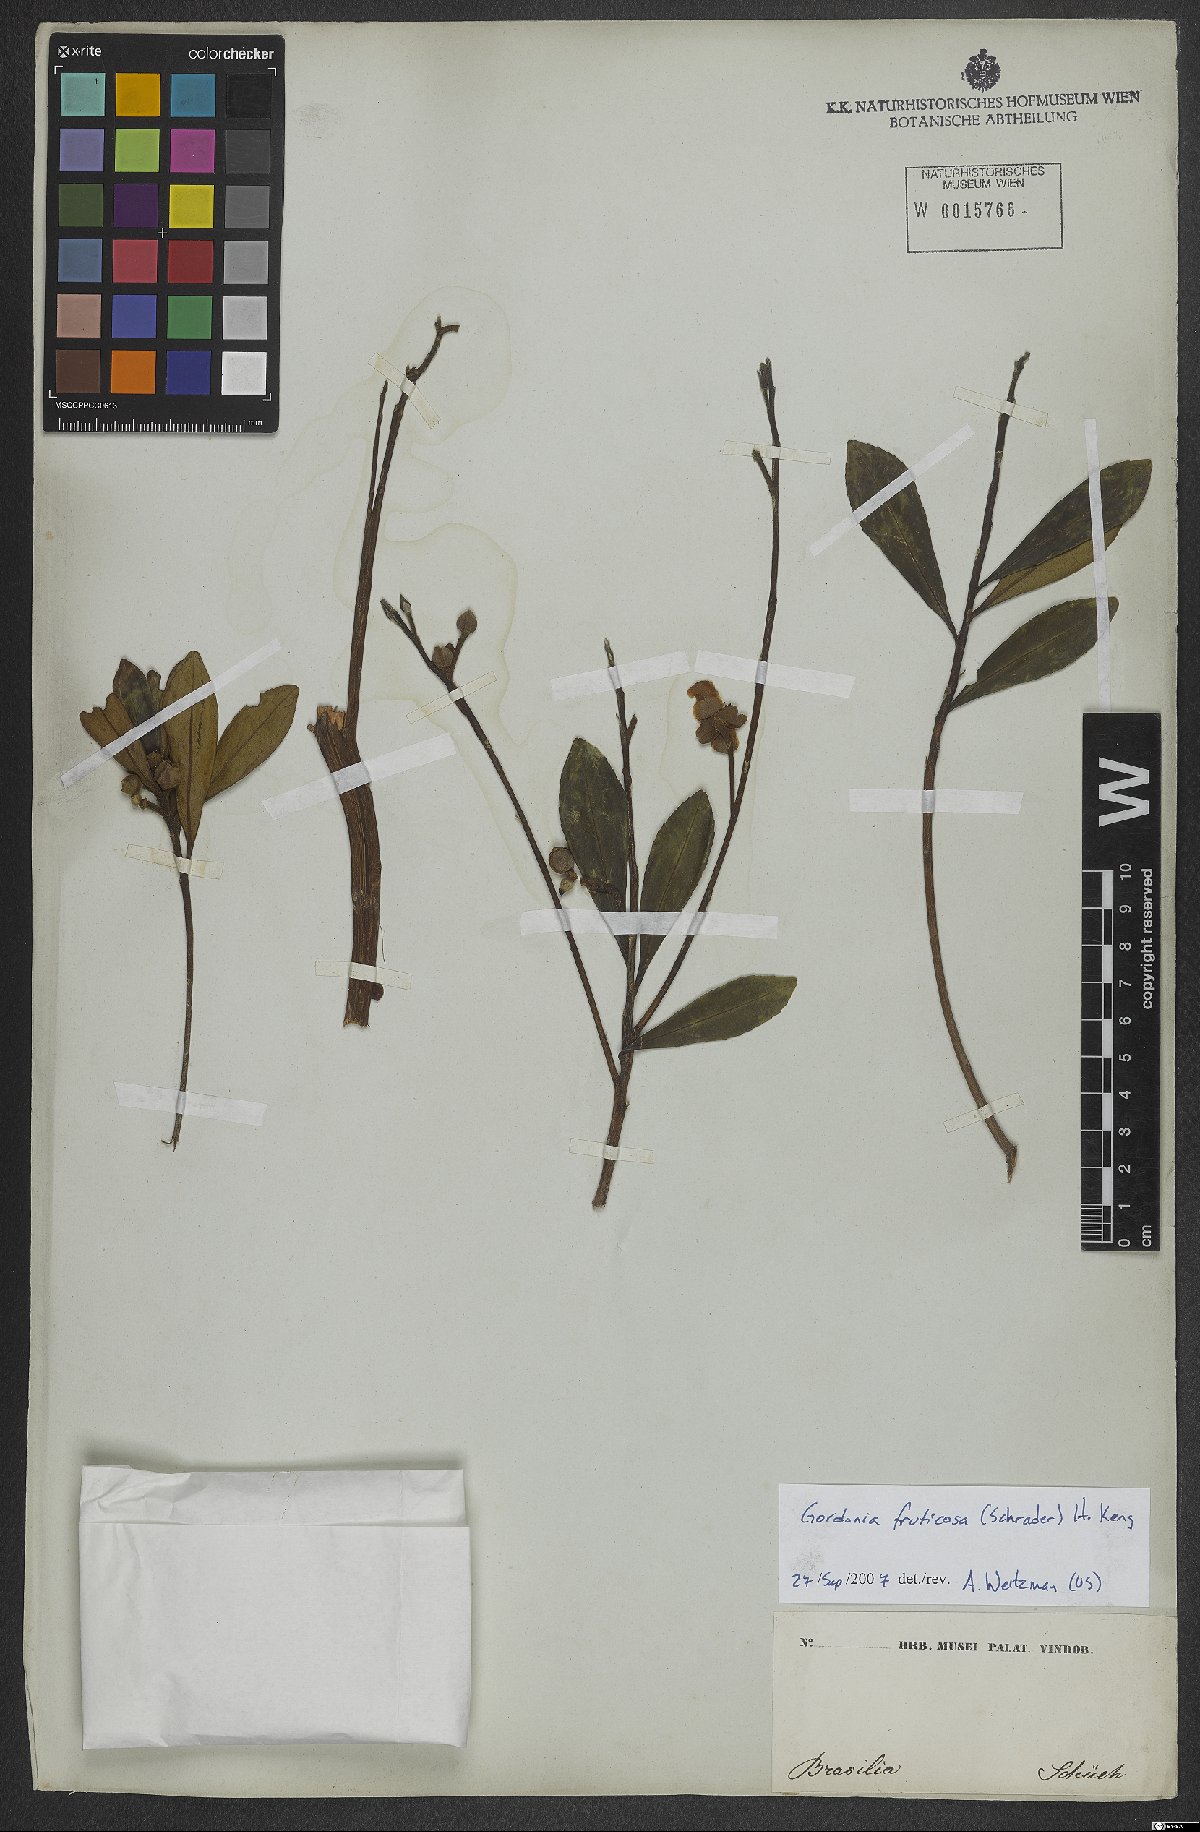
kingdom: Plantae
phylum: Tracheophyta
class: Magnoliopsida
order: Ericales
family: Theaceae
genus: Gordonia
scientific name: Gordonia fruticosa
